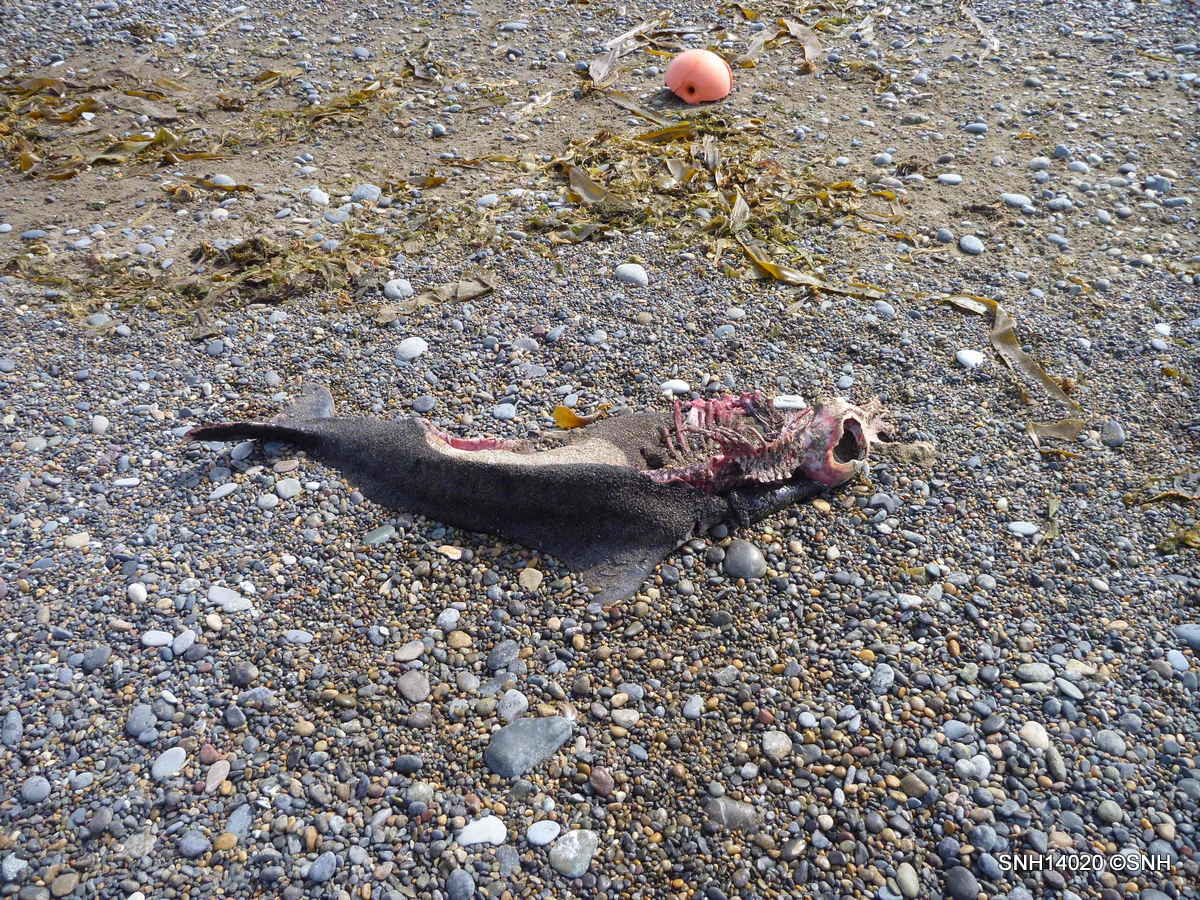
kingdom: Animalia
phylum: Chordata
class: Mammalia
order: Cetacea
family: Phocoenidae
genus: Phocoenoides
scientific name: Phocoenoides dalli
